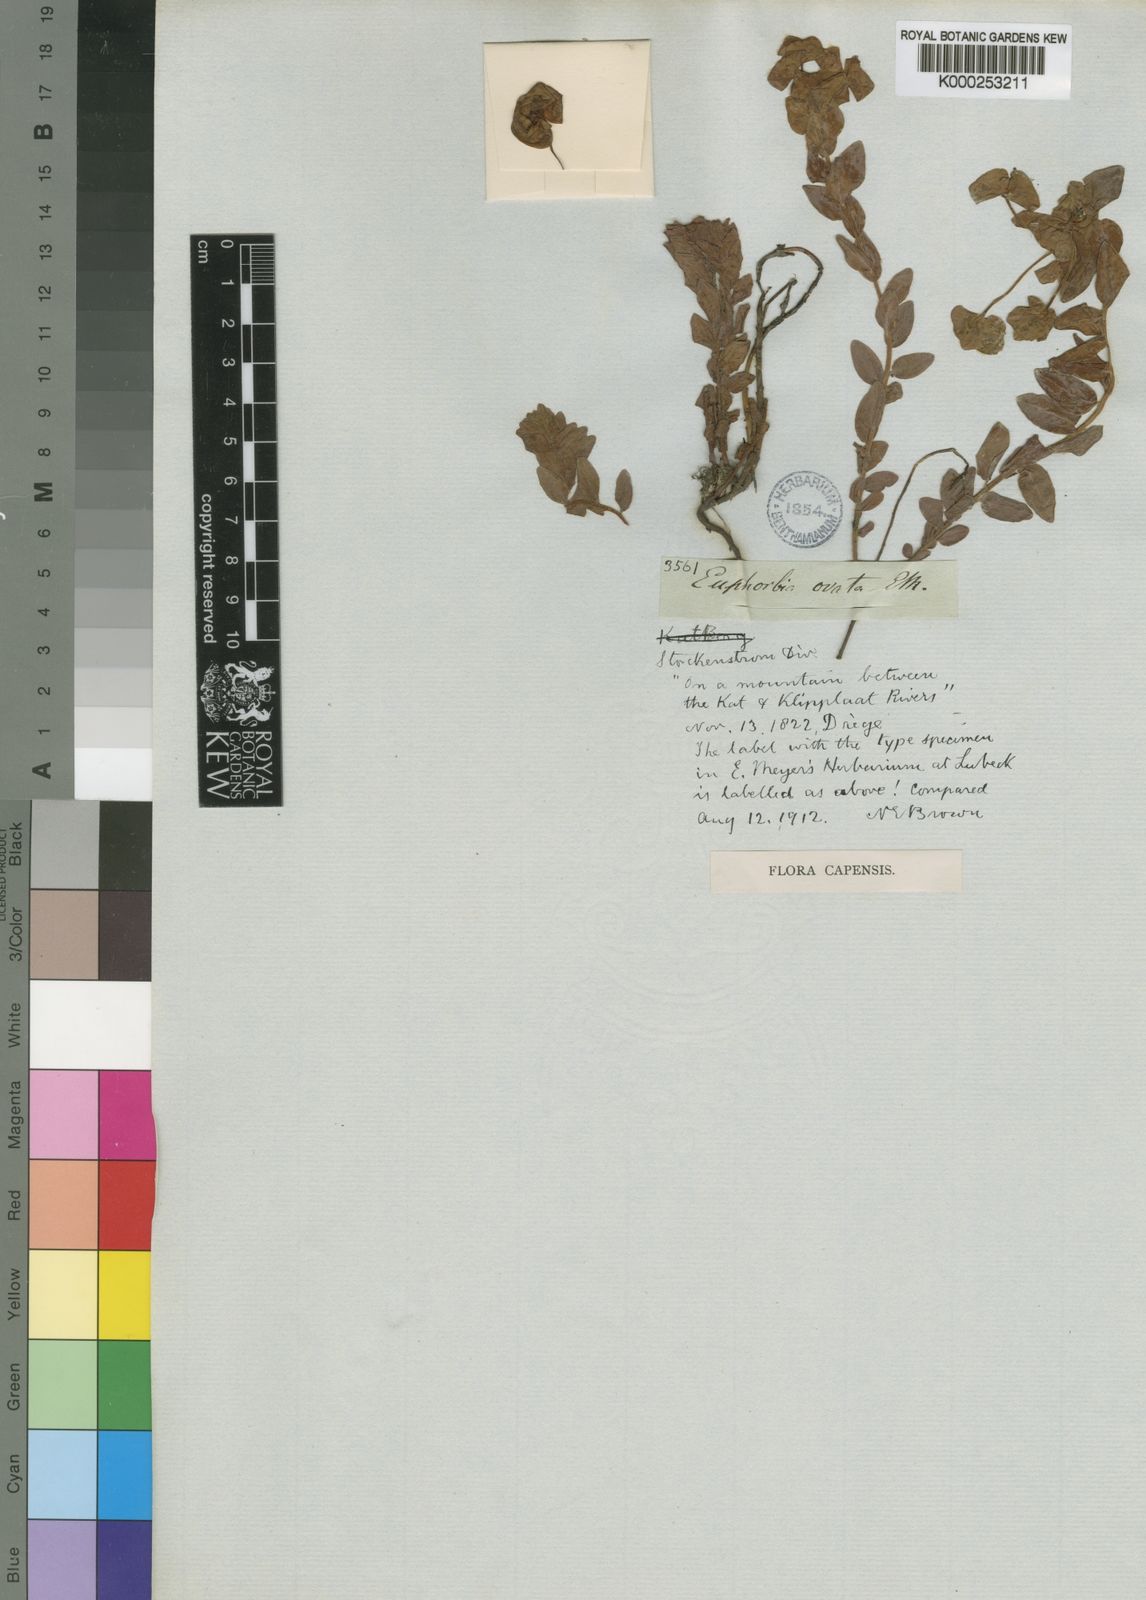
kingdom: Plantae
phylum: Tracheophyta
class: Magnoliopsida
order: Malpighiales
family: Euphorbiaceae
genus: Euphorbia
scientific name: Euphorbia
